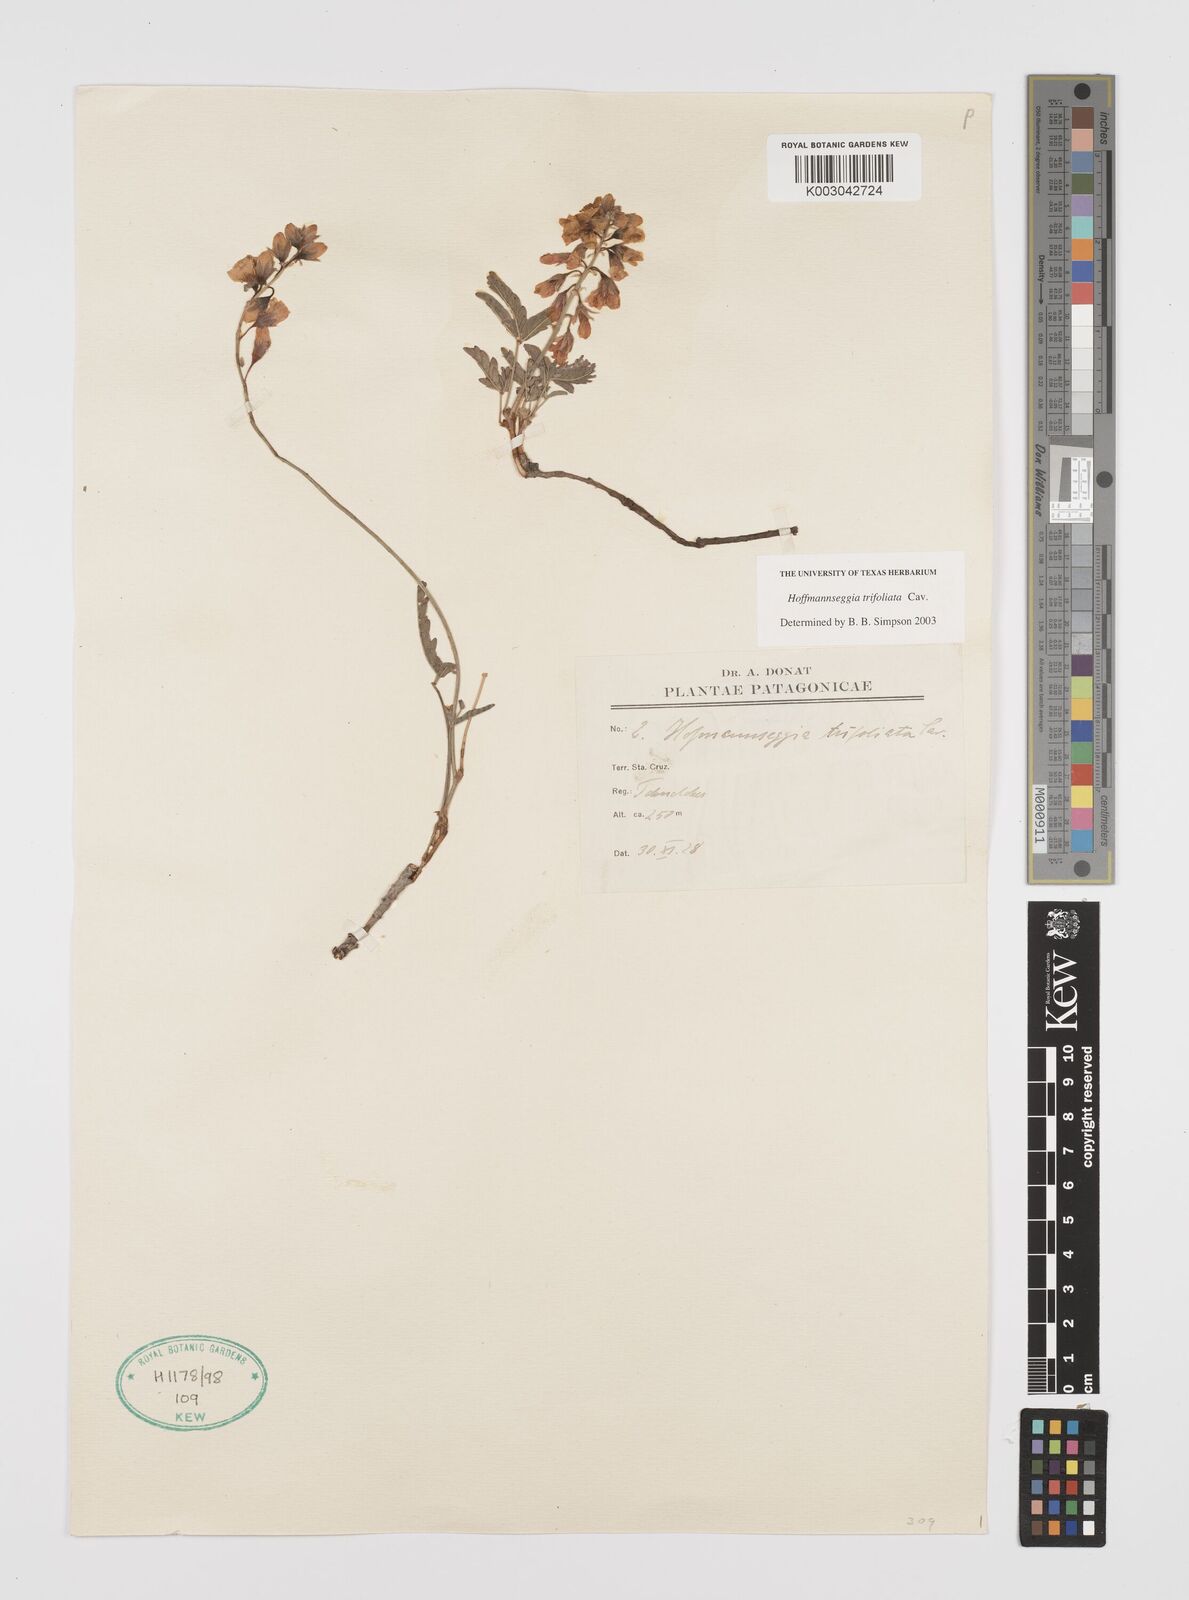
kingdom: Plantae
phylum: Tracheophyta
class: Magnoliopsida
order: Fabales
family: Fabaceae
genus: Hoffmannseggia
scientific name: Hoffmannseggia trifoliata
